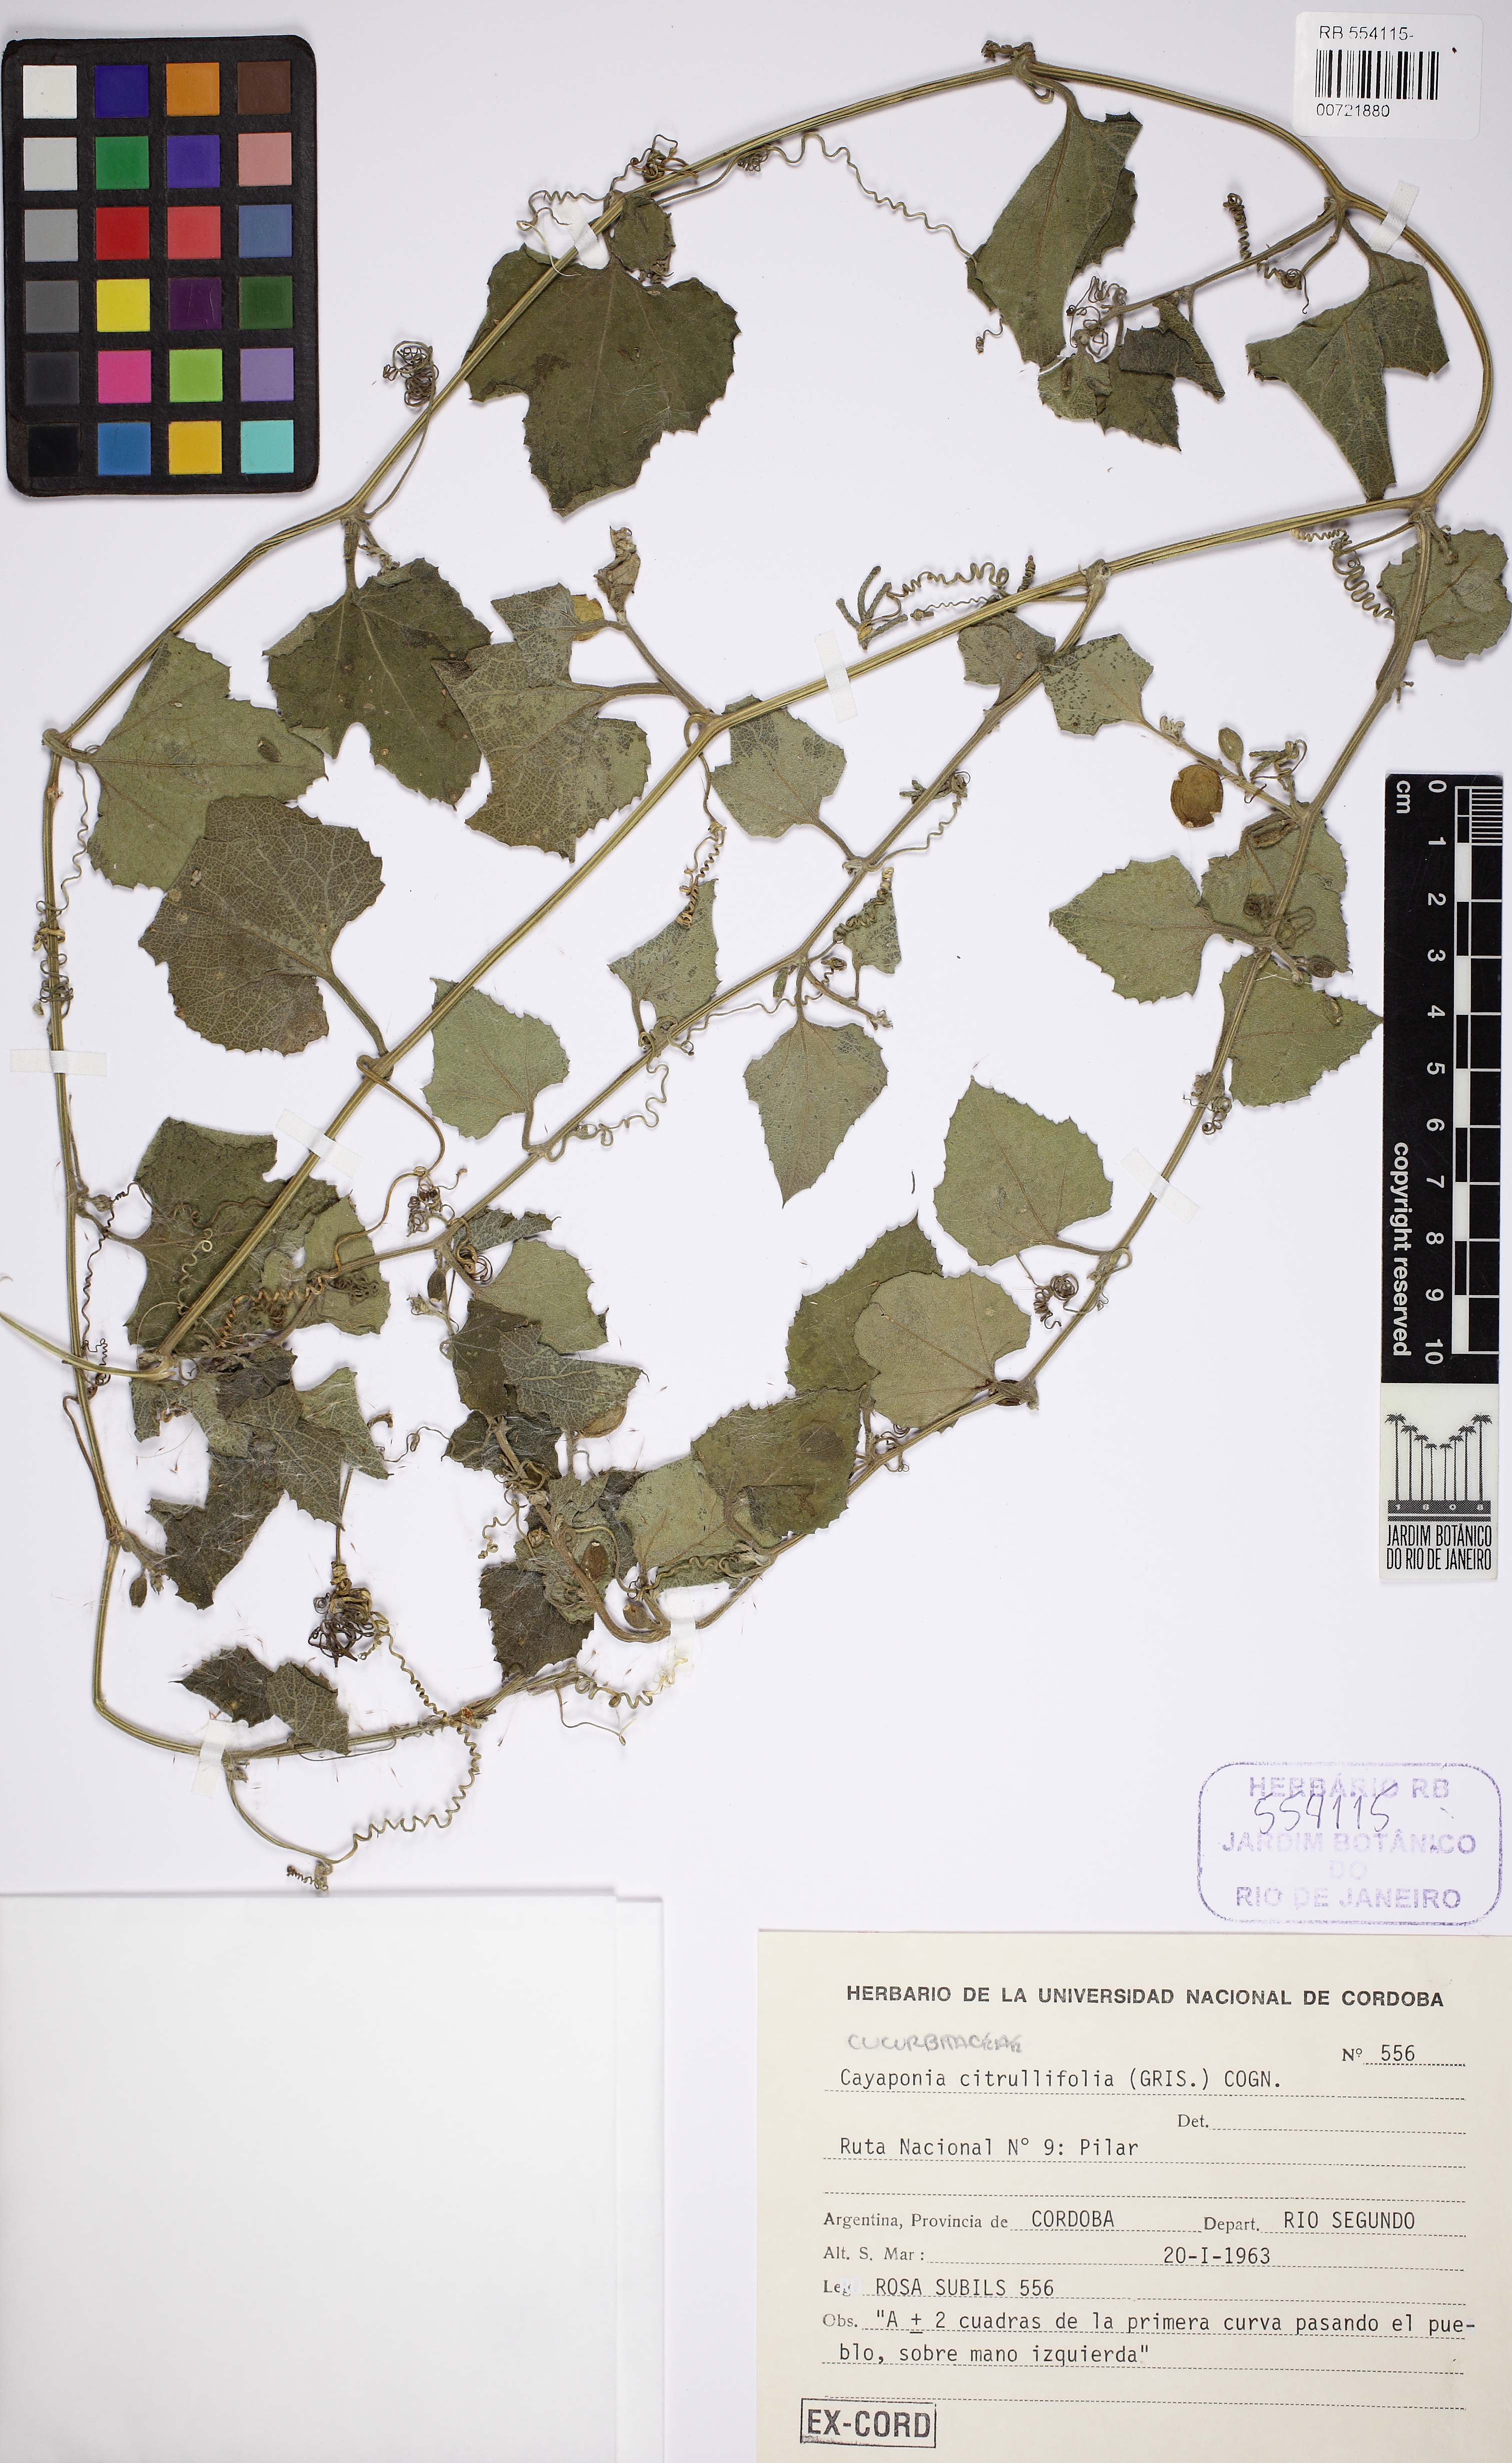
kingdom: Plantae
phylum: Tracheophyta
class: Magnoliopsida
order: Cucurbitales
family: Cucurbitaceae
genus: Cayaponia
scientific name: Cayaponia citrullifolia
